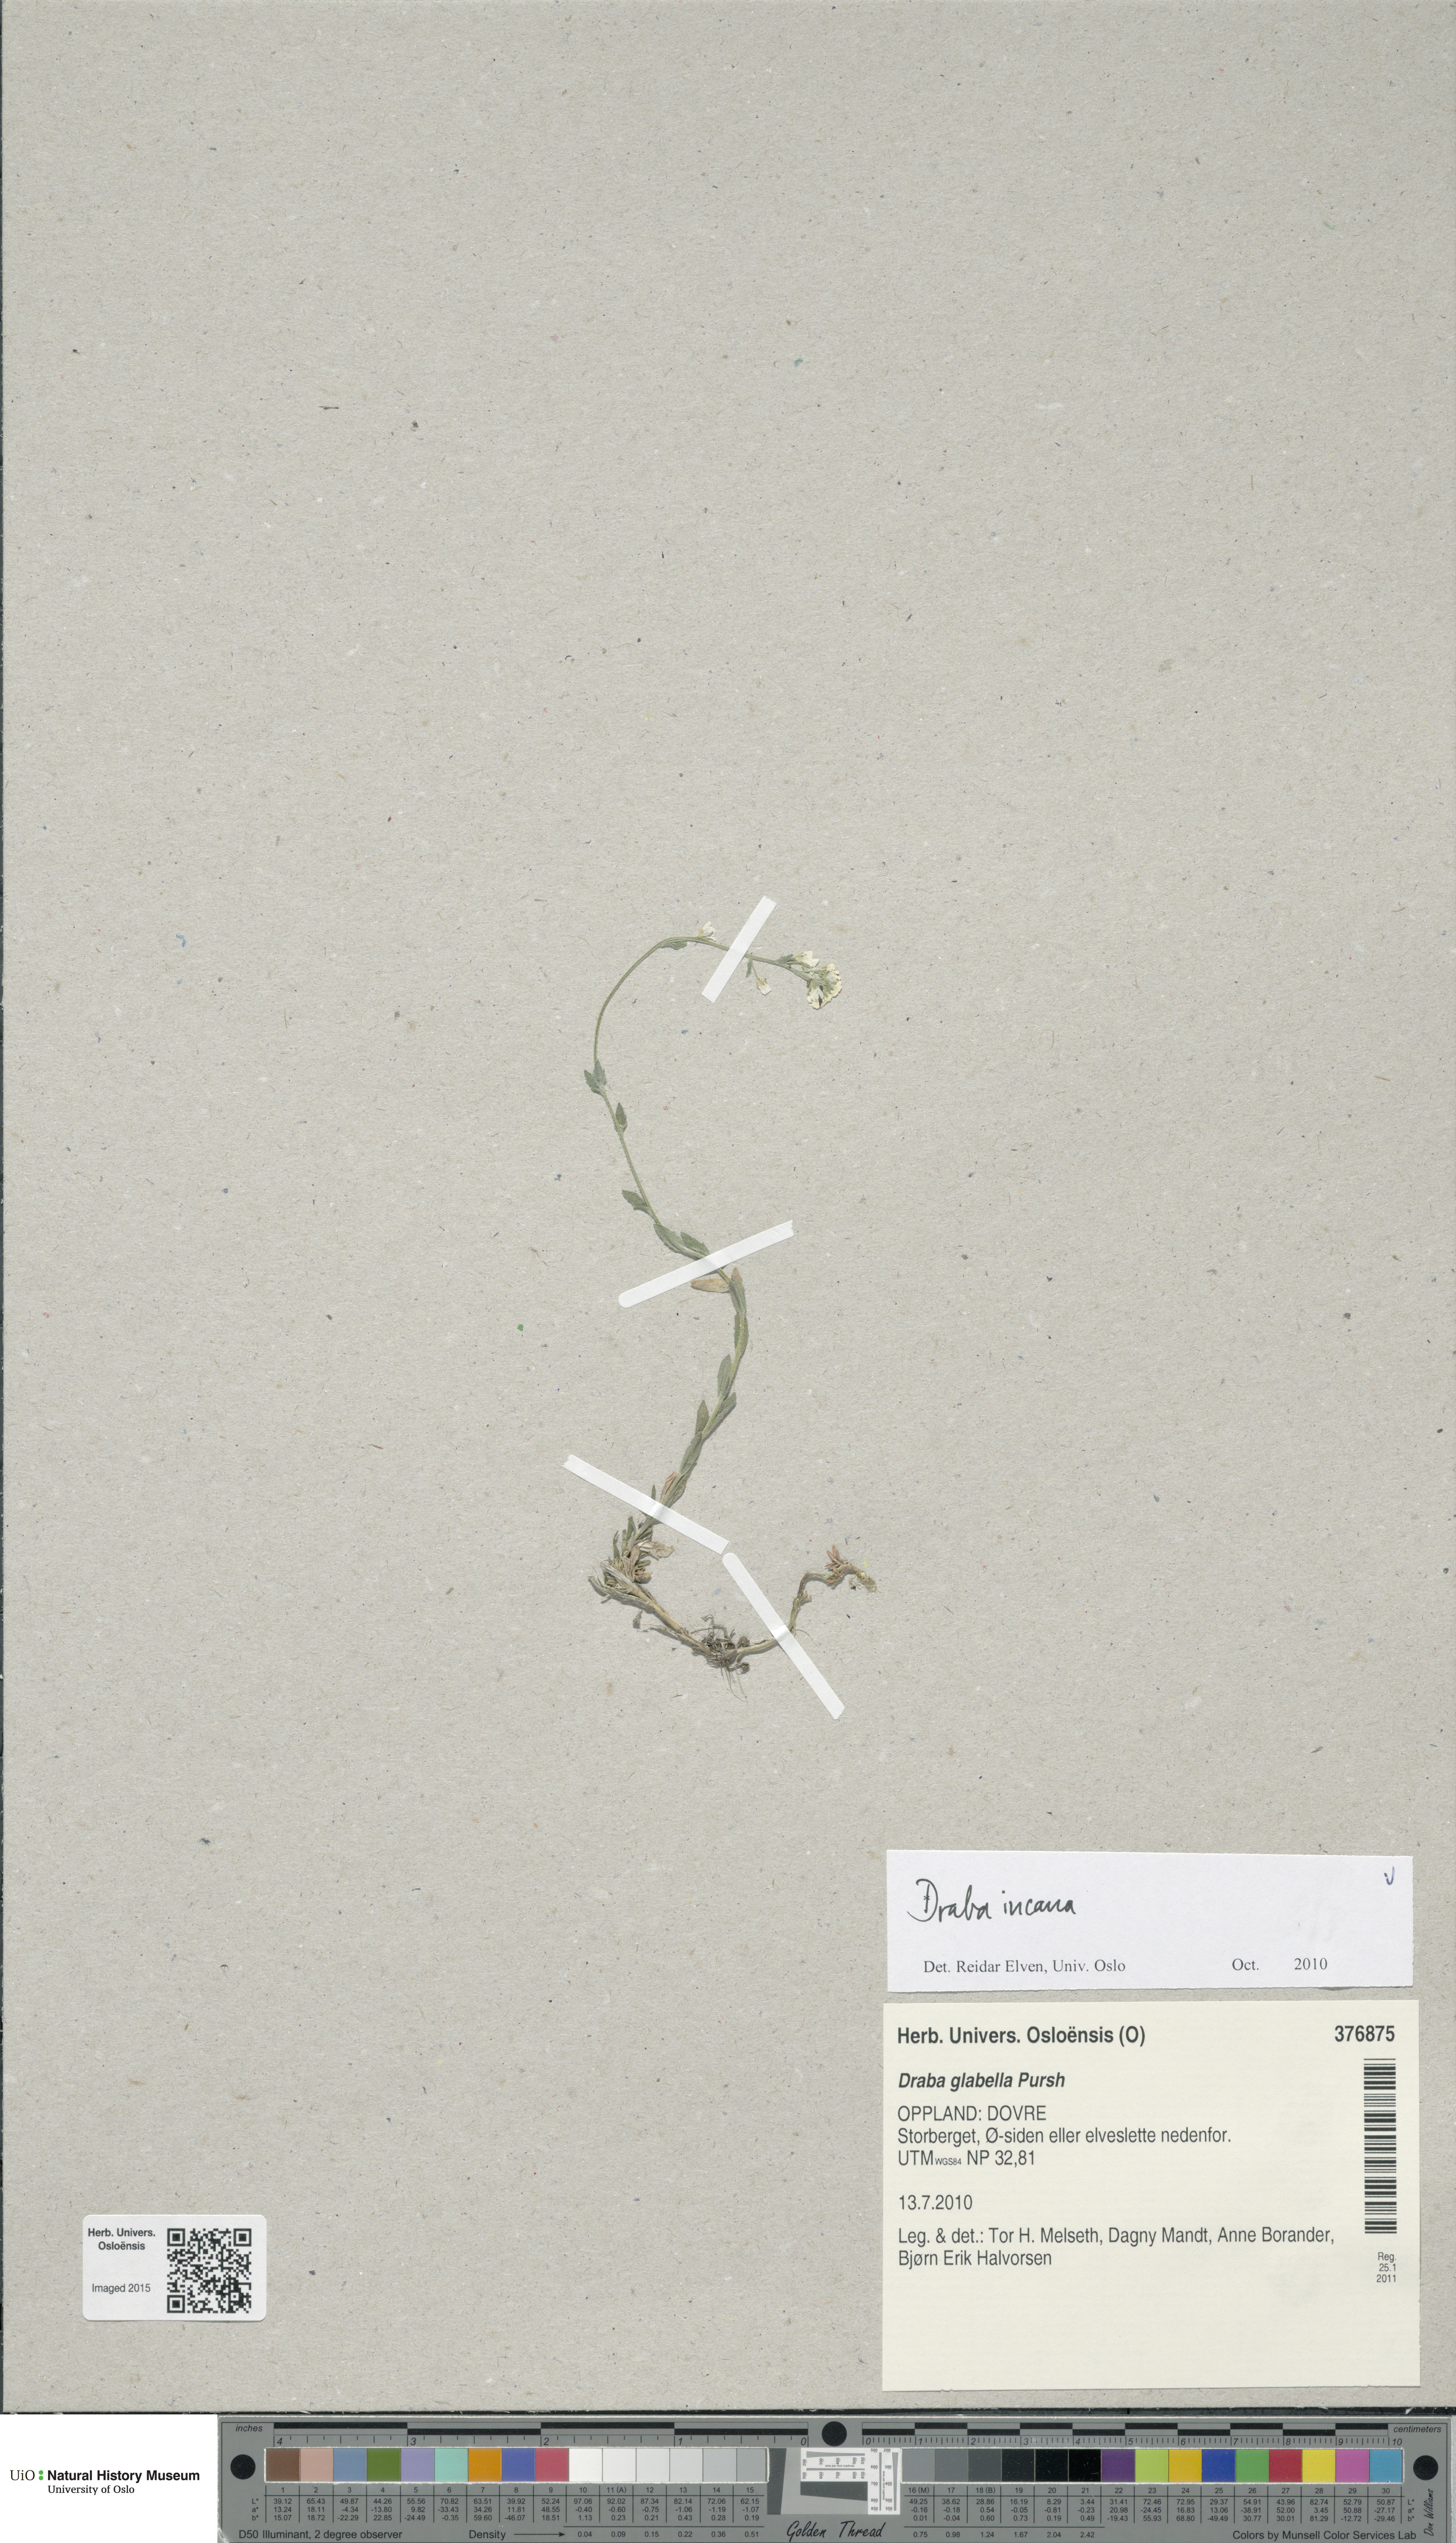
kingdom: Plantae
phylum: Tracheophyta
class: Magnoliopsida
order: Brassicales
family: Brassicaceae
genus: Draba
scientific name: Draba incana
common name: Hoary whitlow-grass
